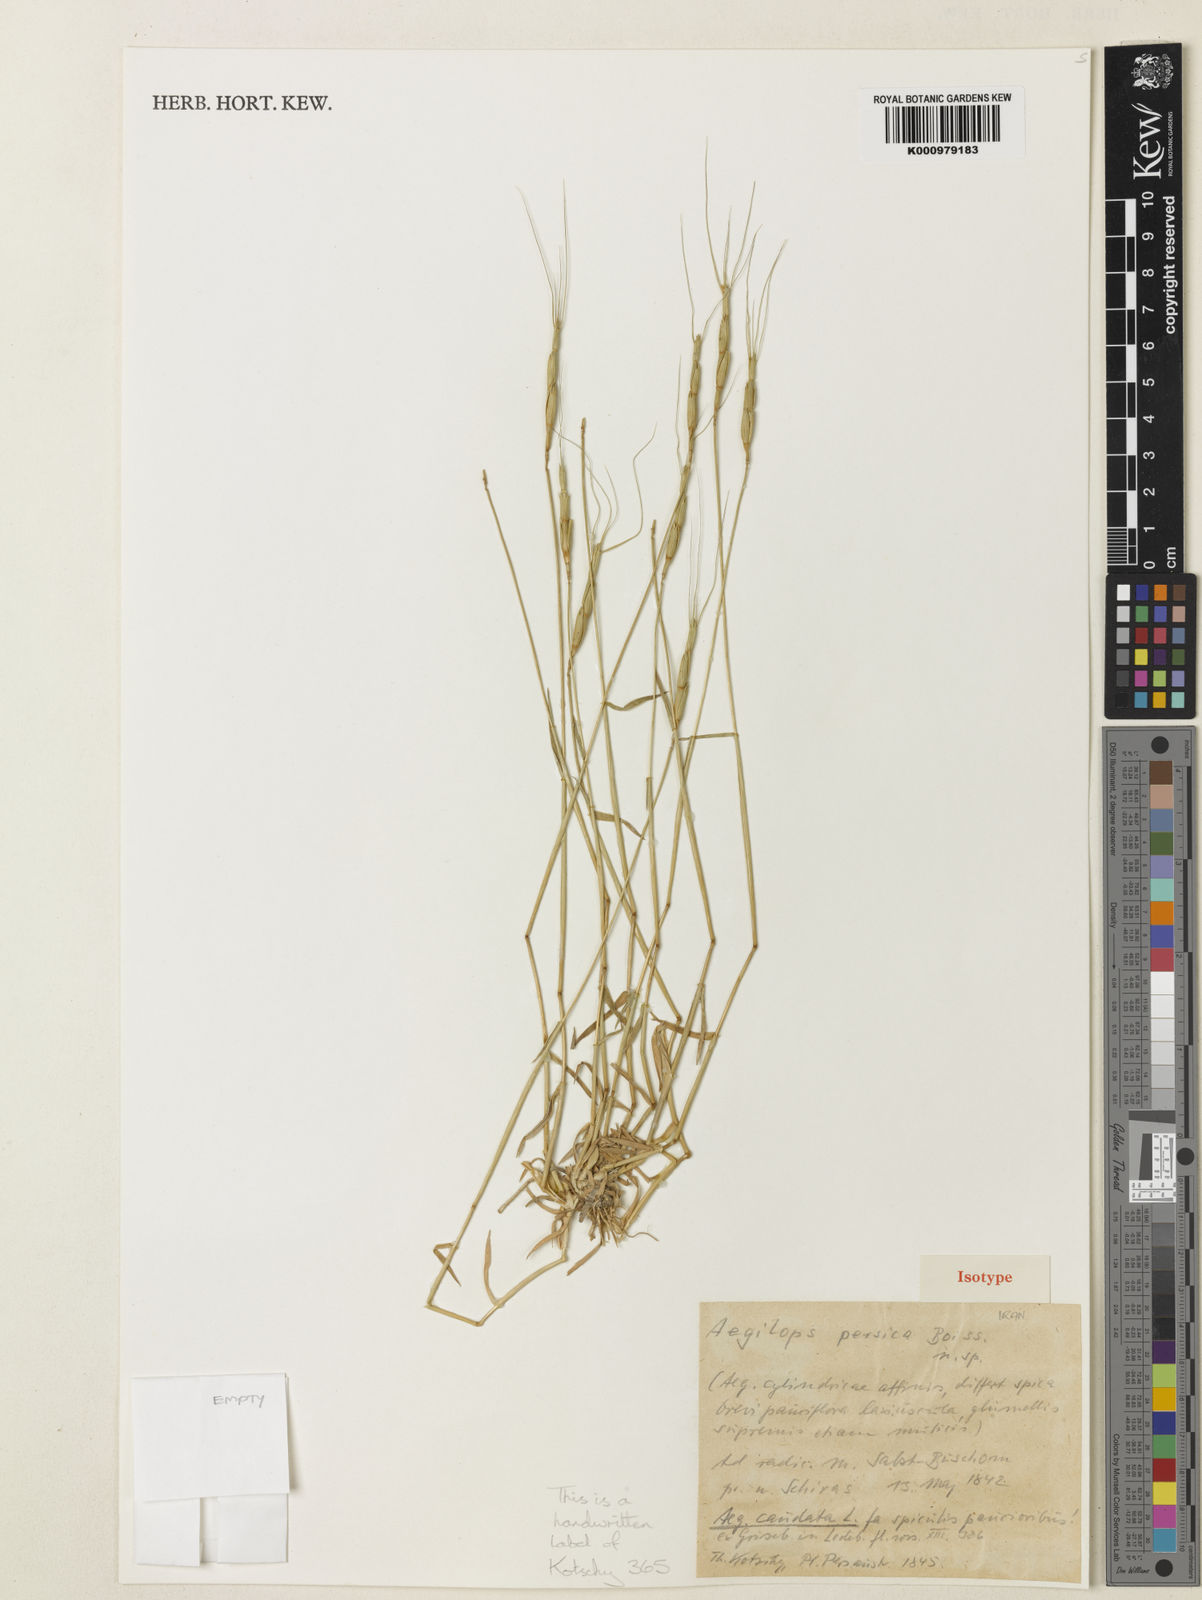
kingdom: Plantae
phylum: Tracheophyta
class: Liliopsida
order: Poales
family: Poaceae
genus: Aegilops
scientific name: Aegilops triuncialis
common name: Barb goat grass
